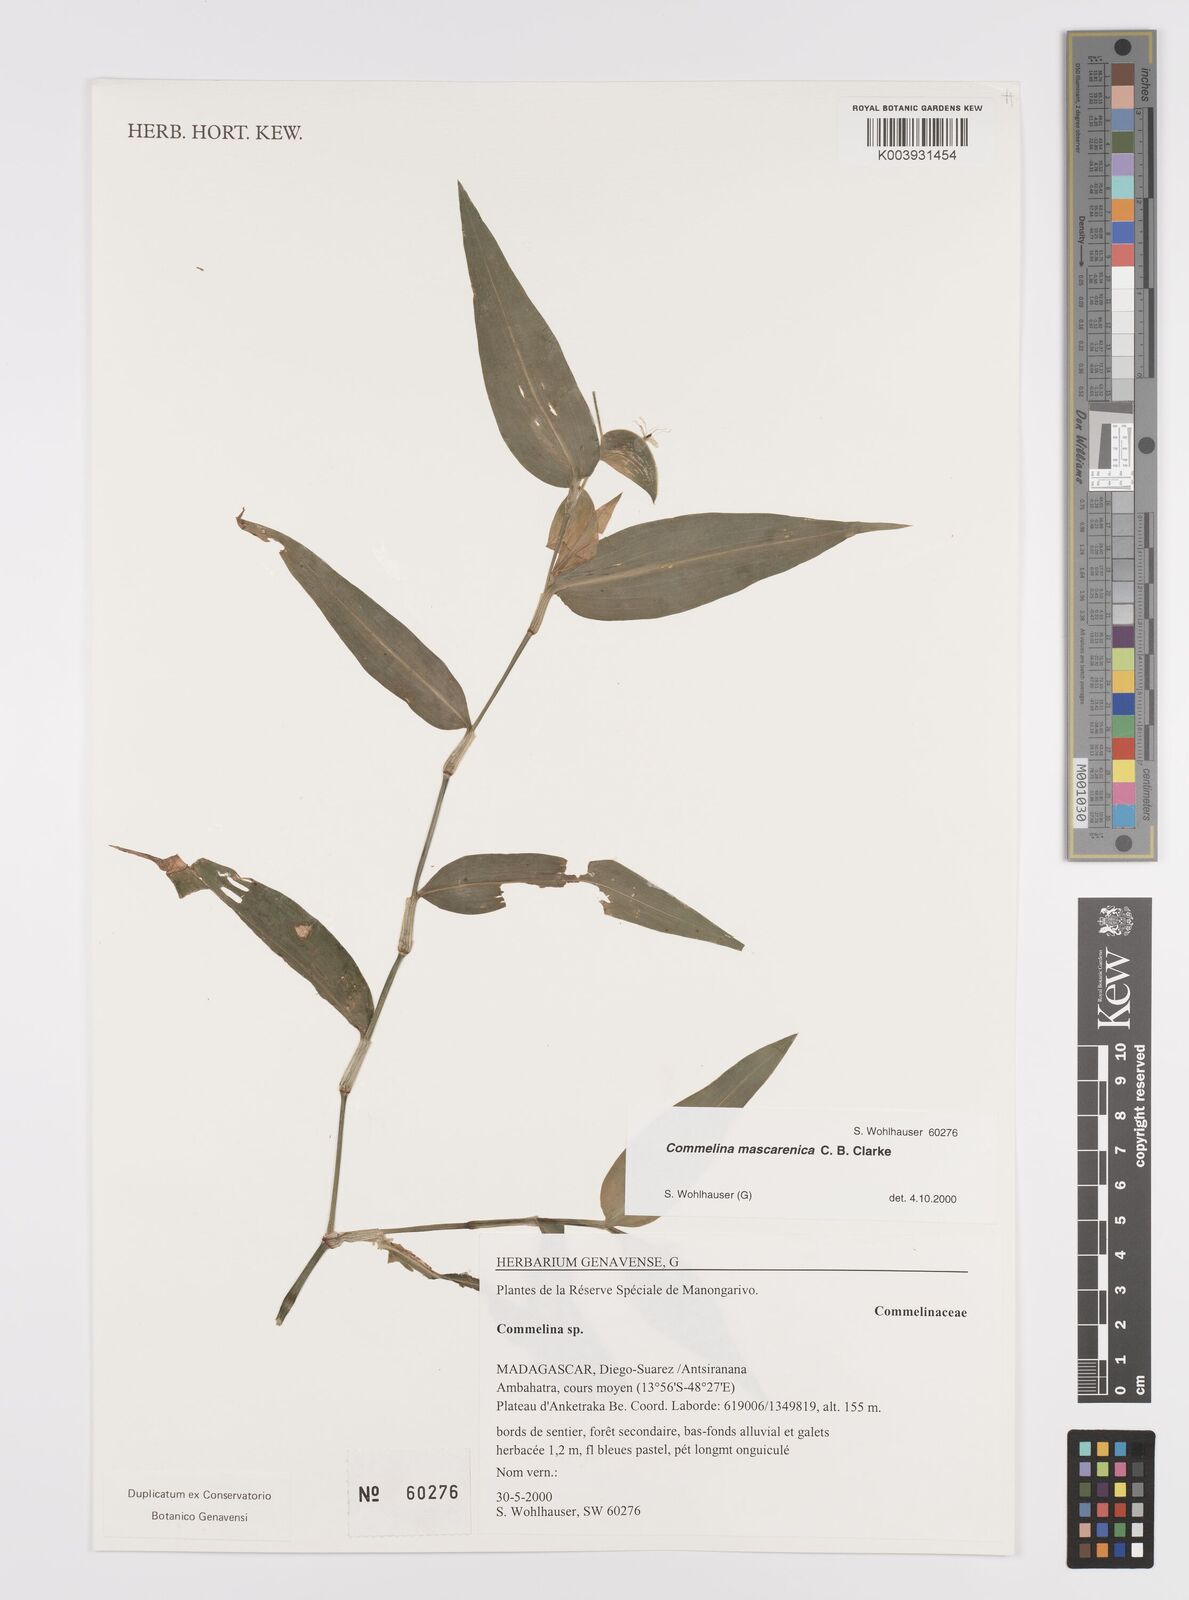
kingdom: Plantae
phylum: Tracheophyta
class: Liliopsida
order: Commelinales
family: Commelinaceae
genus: Commelina
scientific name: Commelina mascarenica
